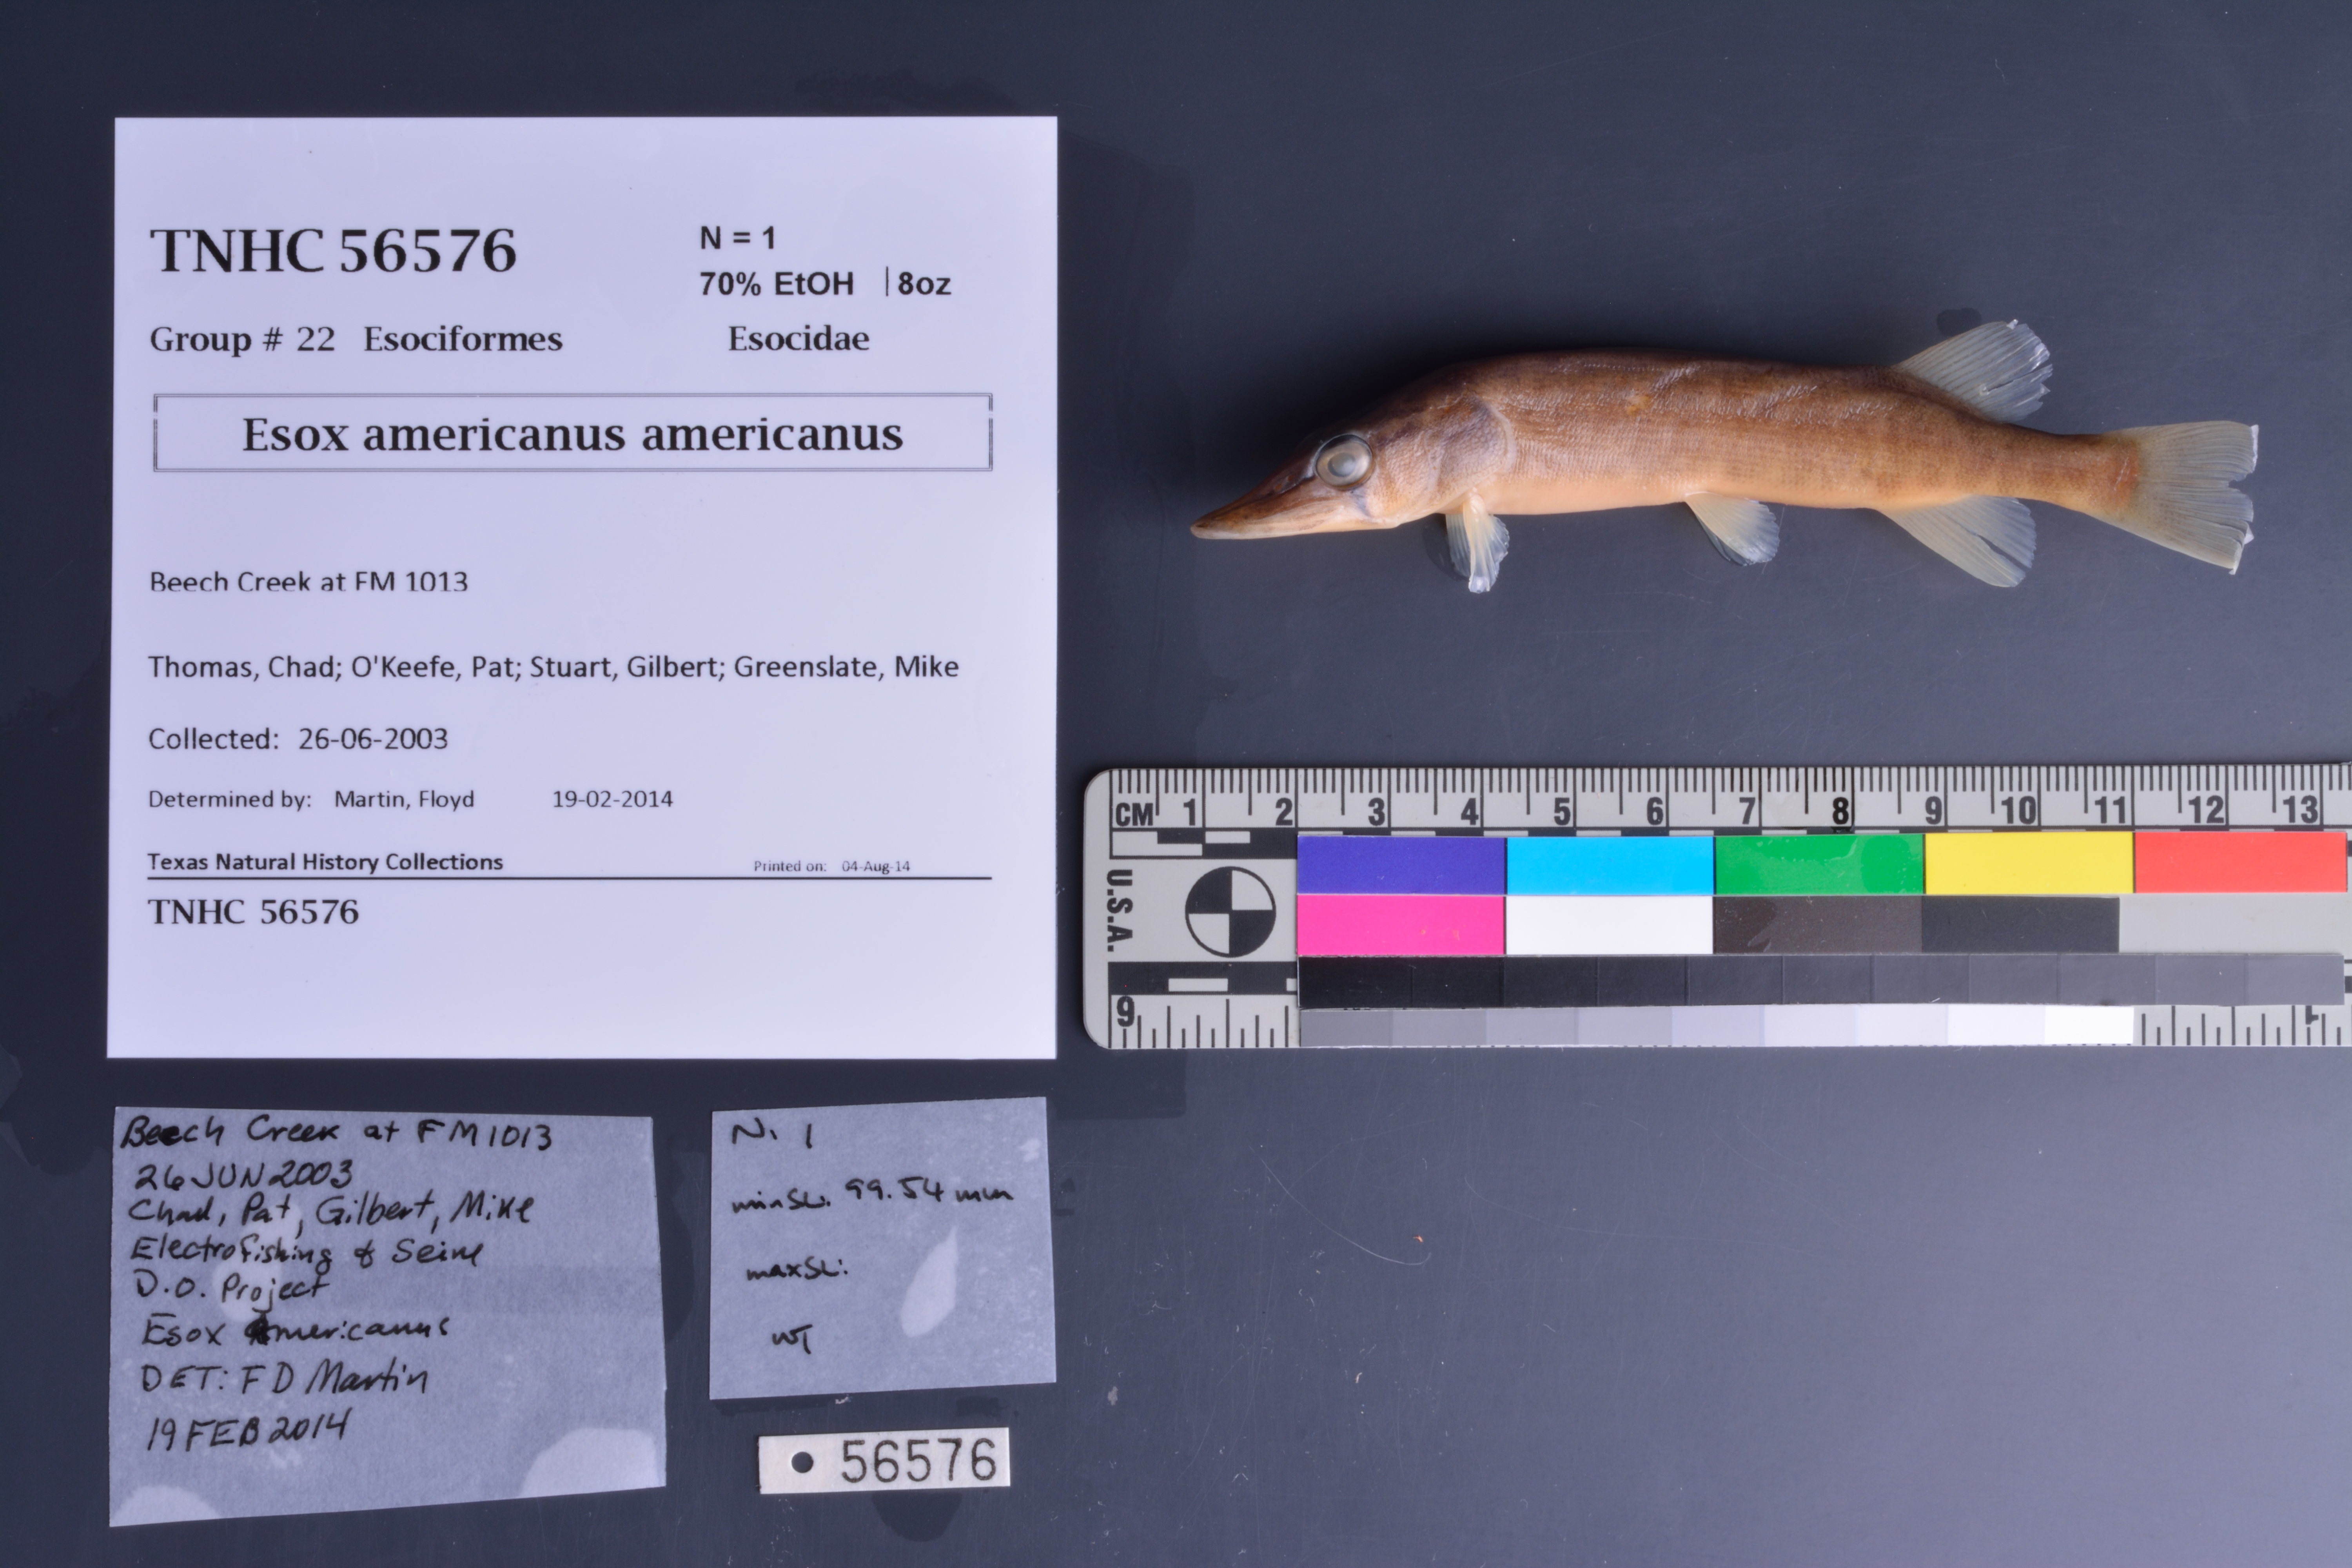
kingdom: Animalia
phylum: Chordata
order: Esociformes
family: Esocidae
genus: Esox
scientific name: Esox americanus
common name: Redfin pickerel
